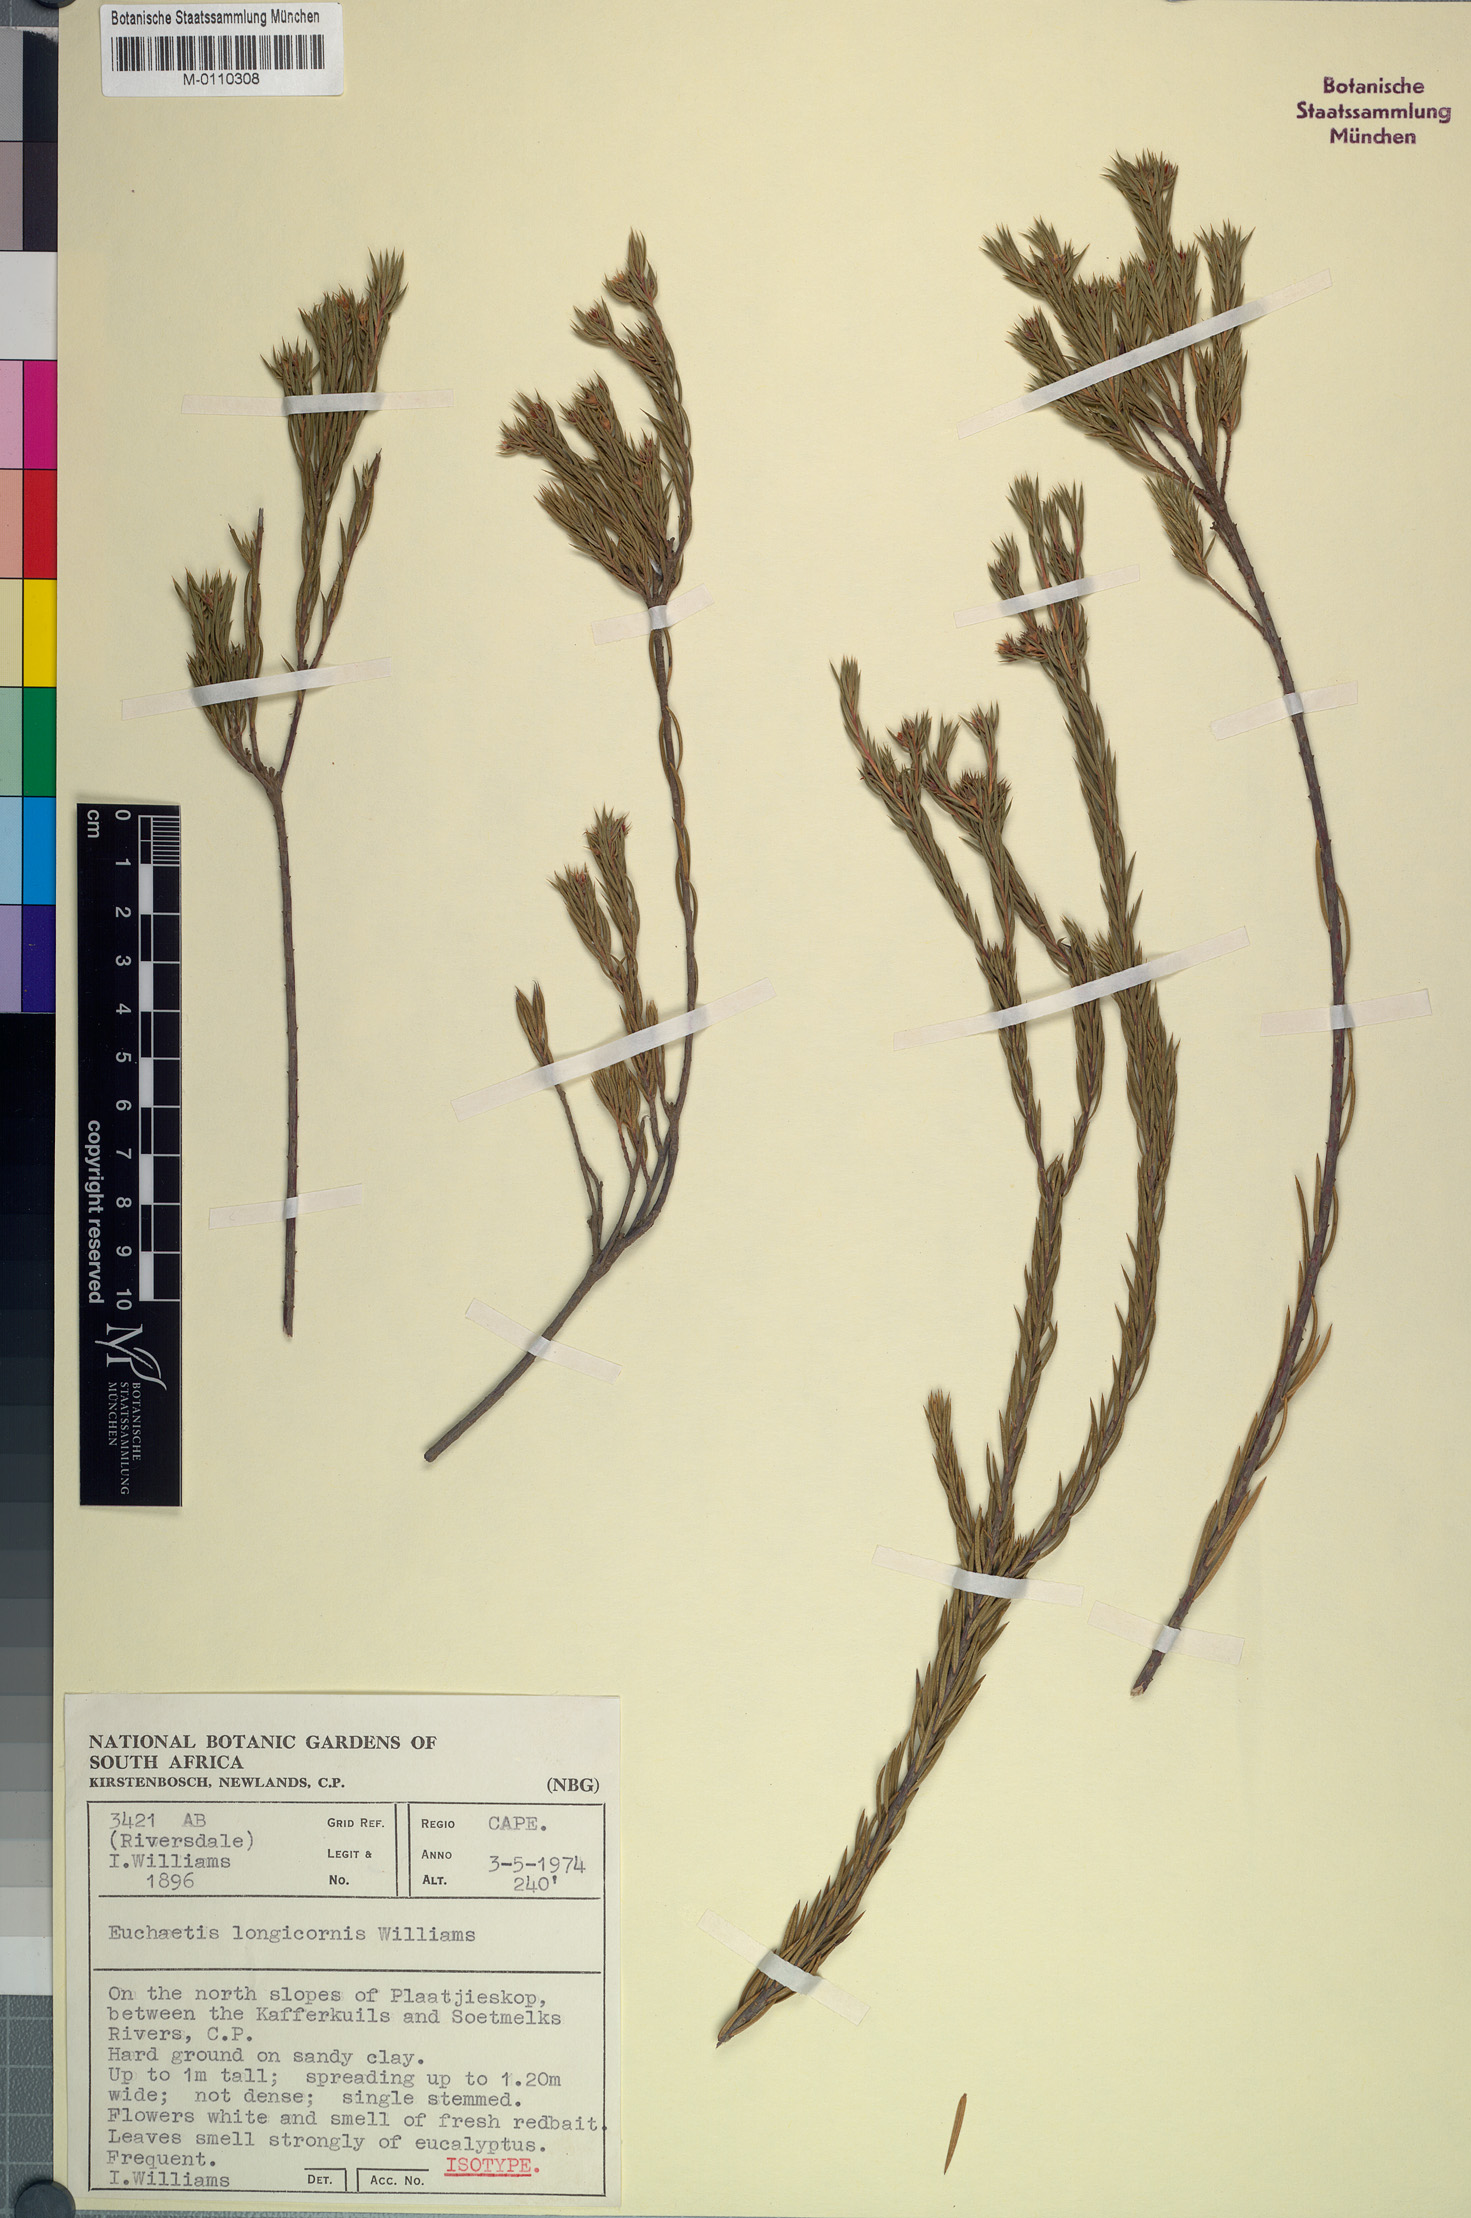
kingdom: Plantae
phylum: Tracheophyta
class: Magnoliopsida
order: Sapindales
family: Rutaceae
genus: Euchaetis
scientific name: Euchaetis longicornis
